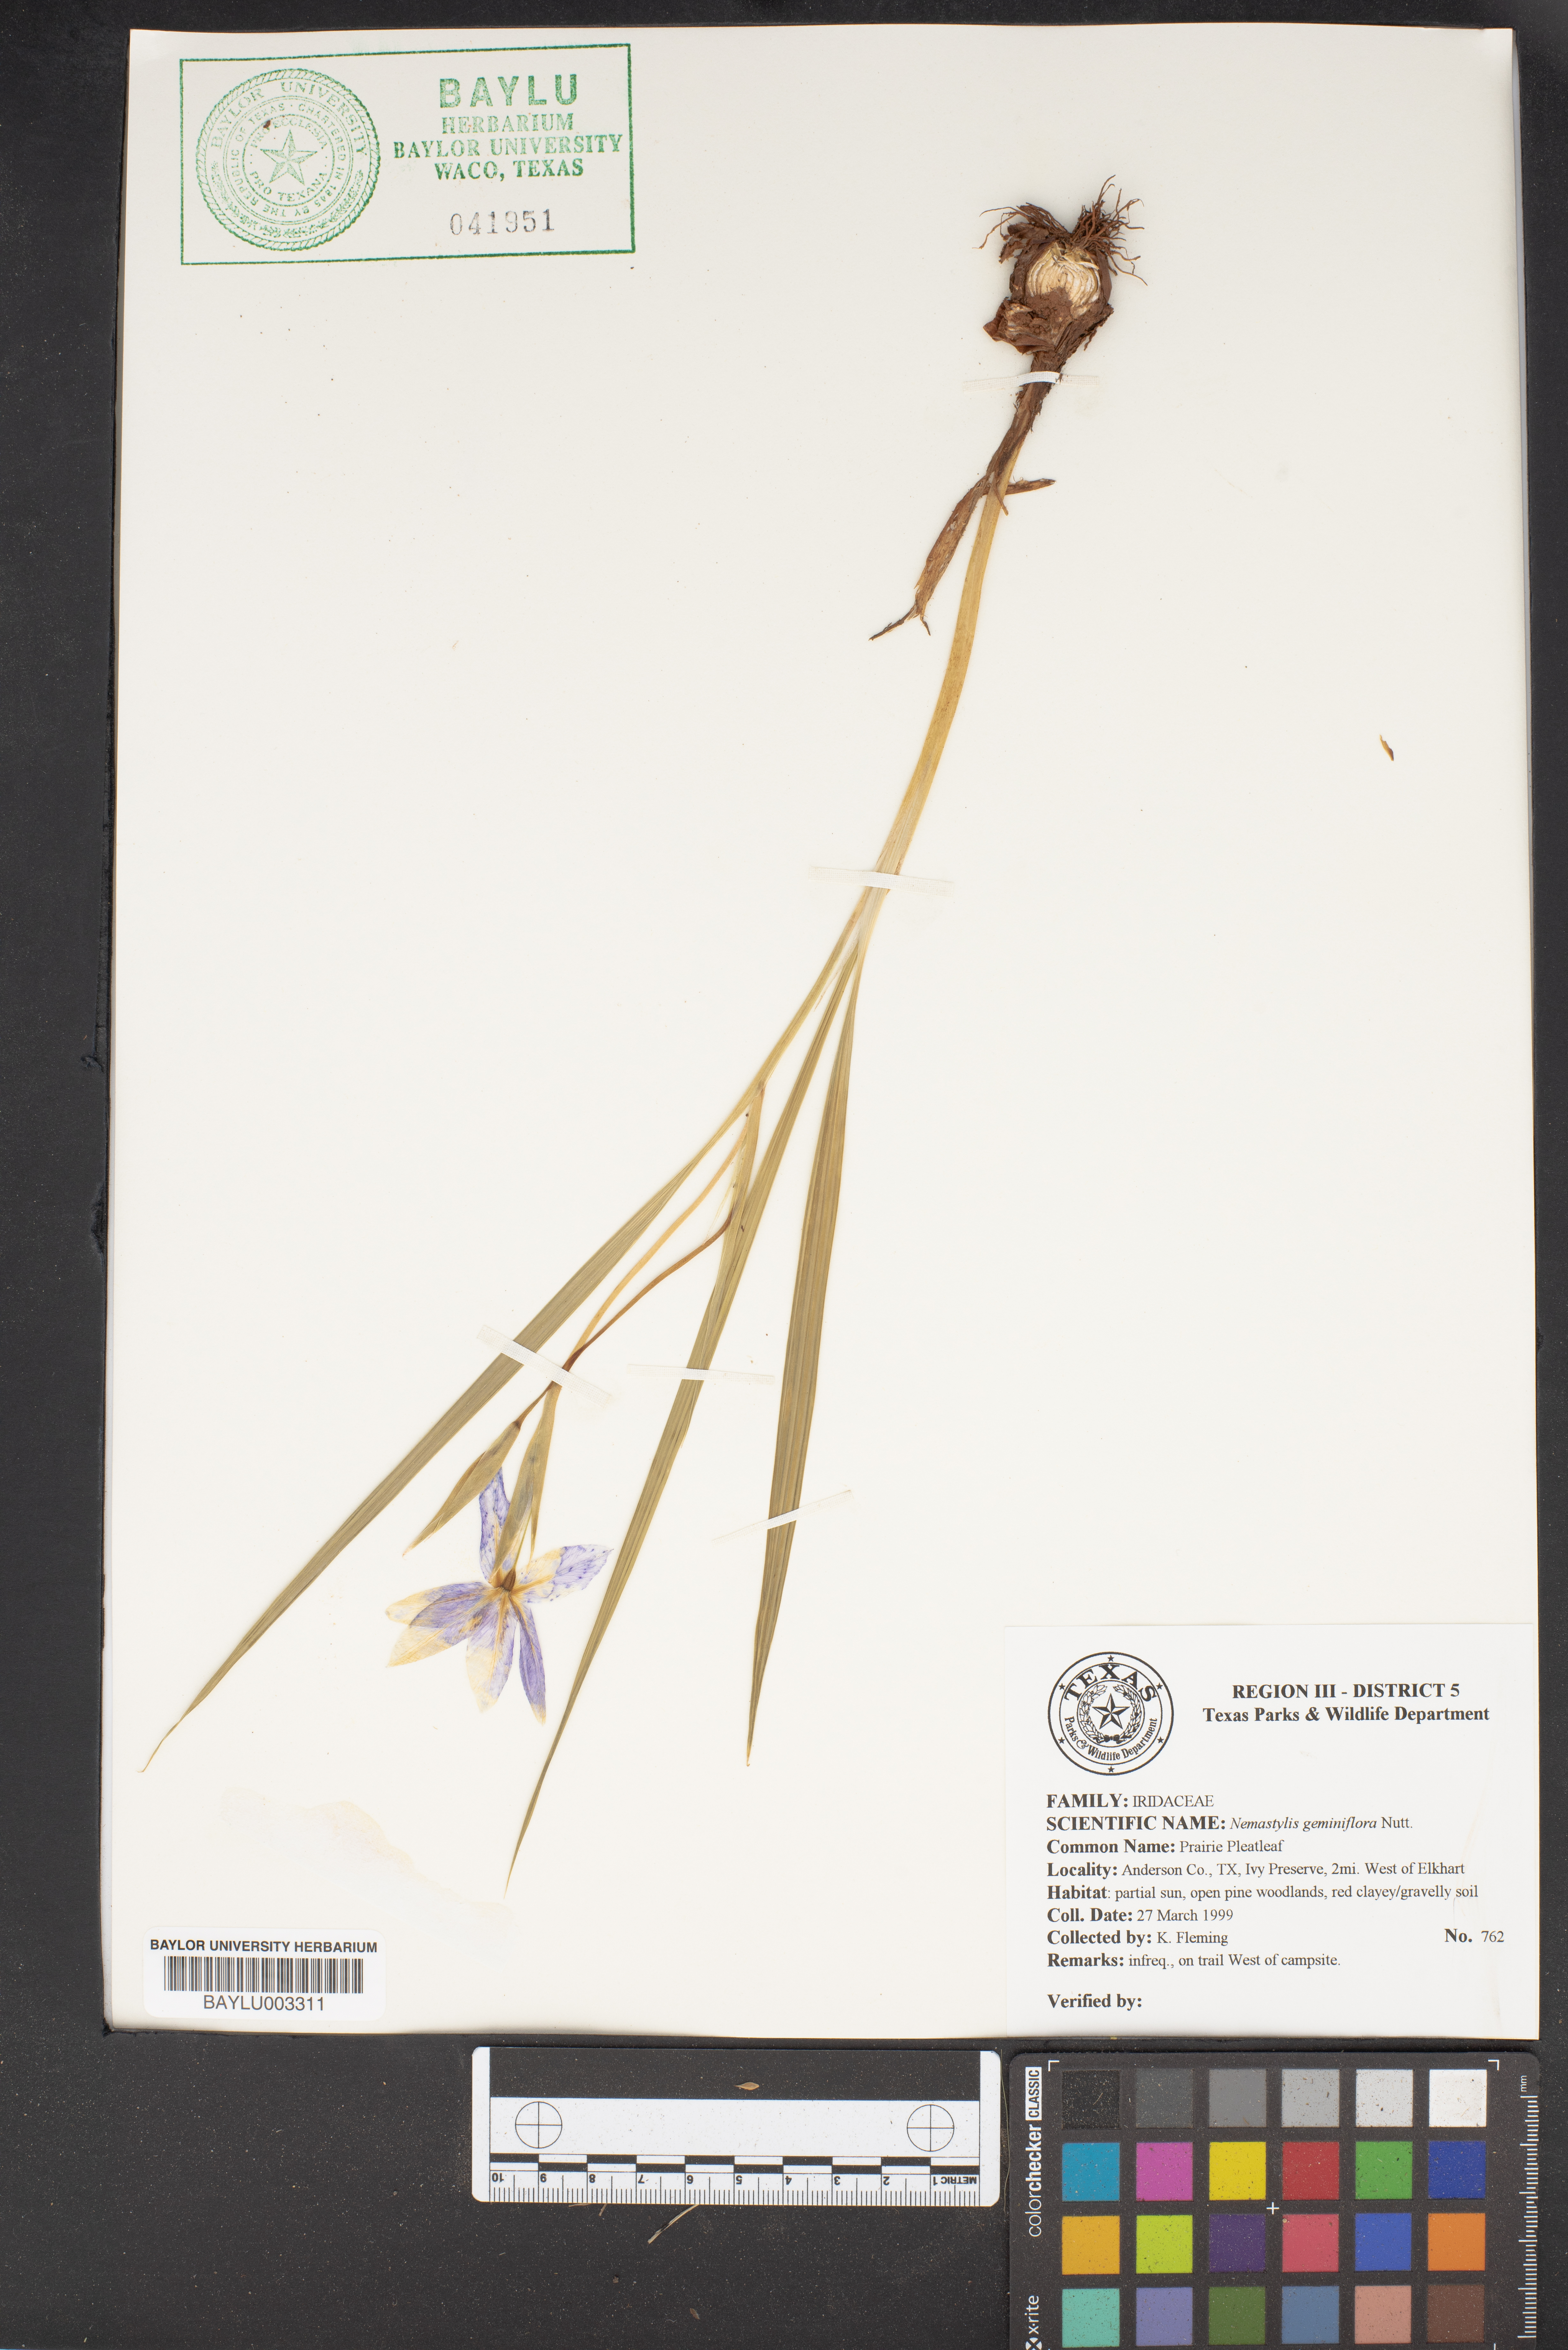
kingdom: Plantae
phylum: Tracheophyta
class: Liliopsida
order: Asparagales
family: Iridaceae
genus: Nemastylis
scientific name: Nemastylis geminiflora
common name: Prairie celestial
